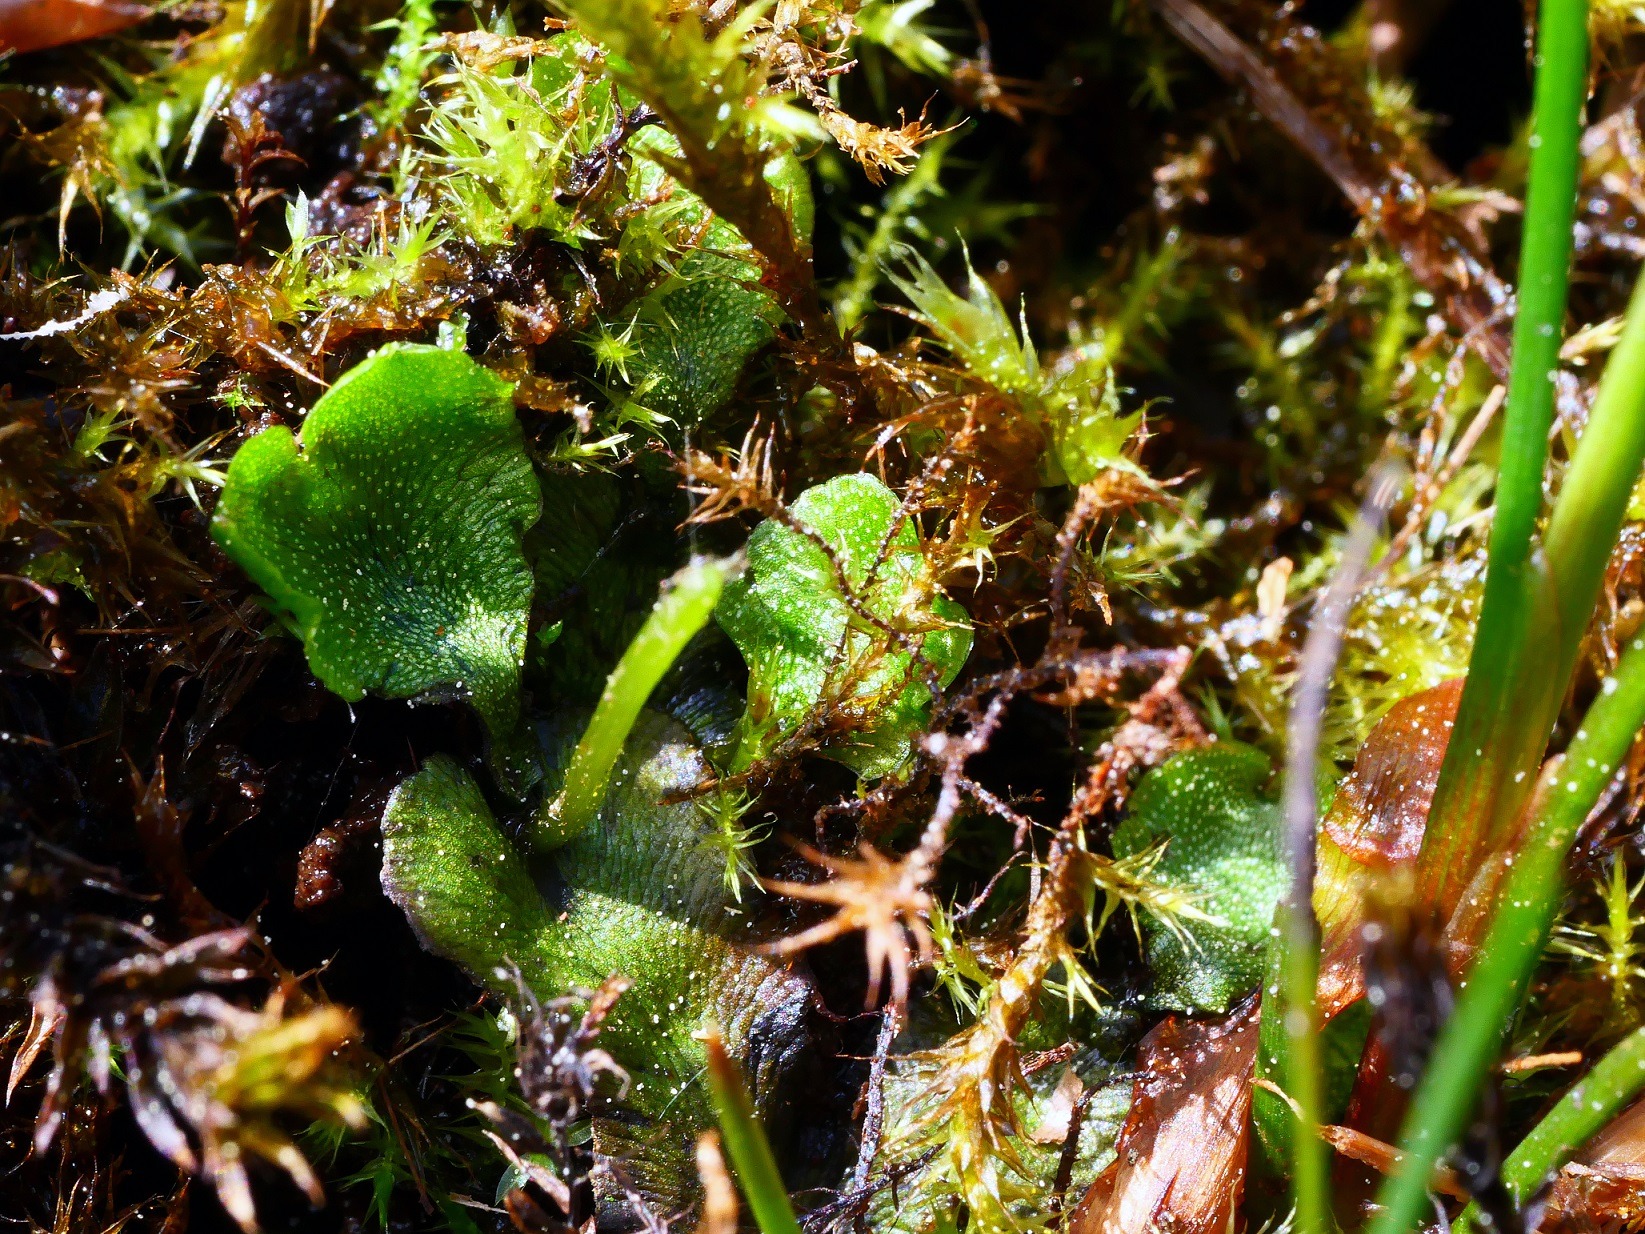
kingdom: Plantae
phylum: Marchantiophyta
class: Marchantiopsida
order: Marchantiales
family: Marchantiaceae
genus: Marchantia
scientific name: Marchantia quadrata
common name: Almindelig kvadratmos
